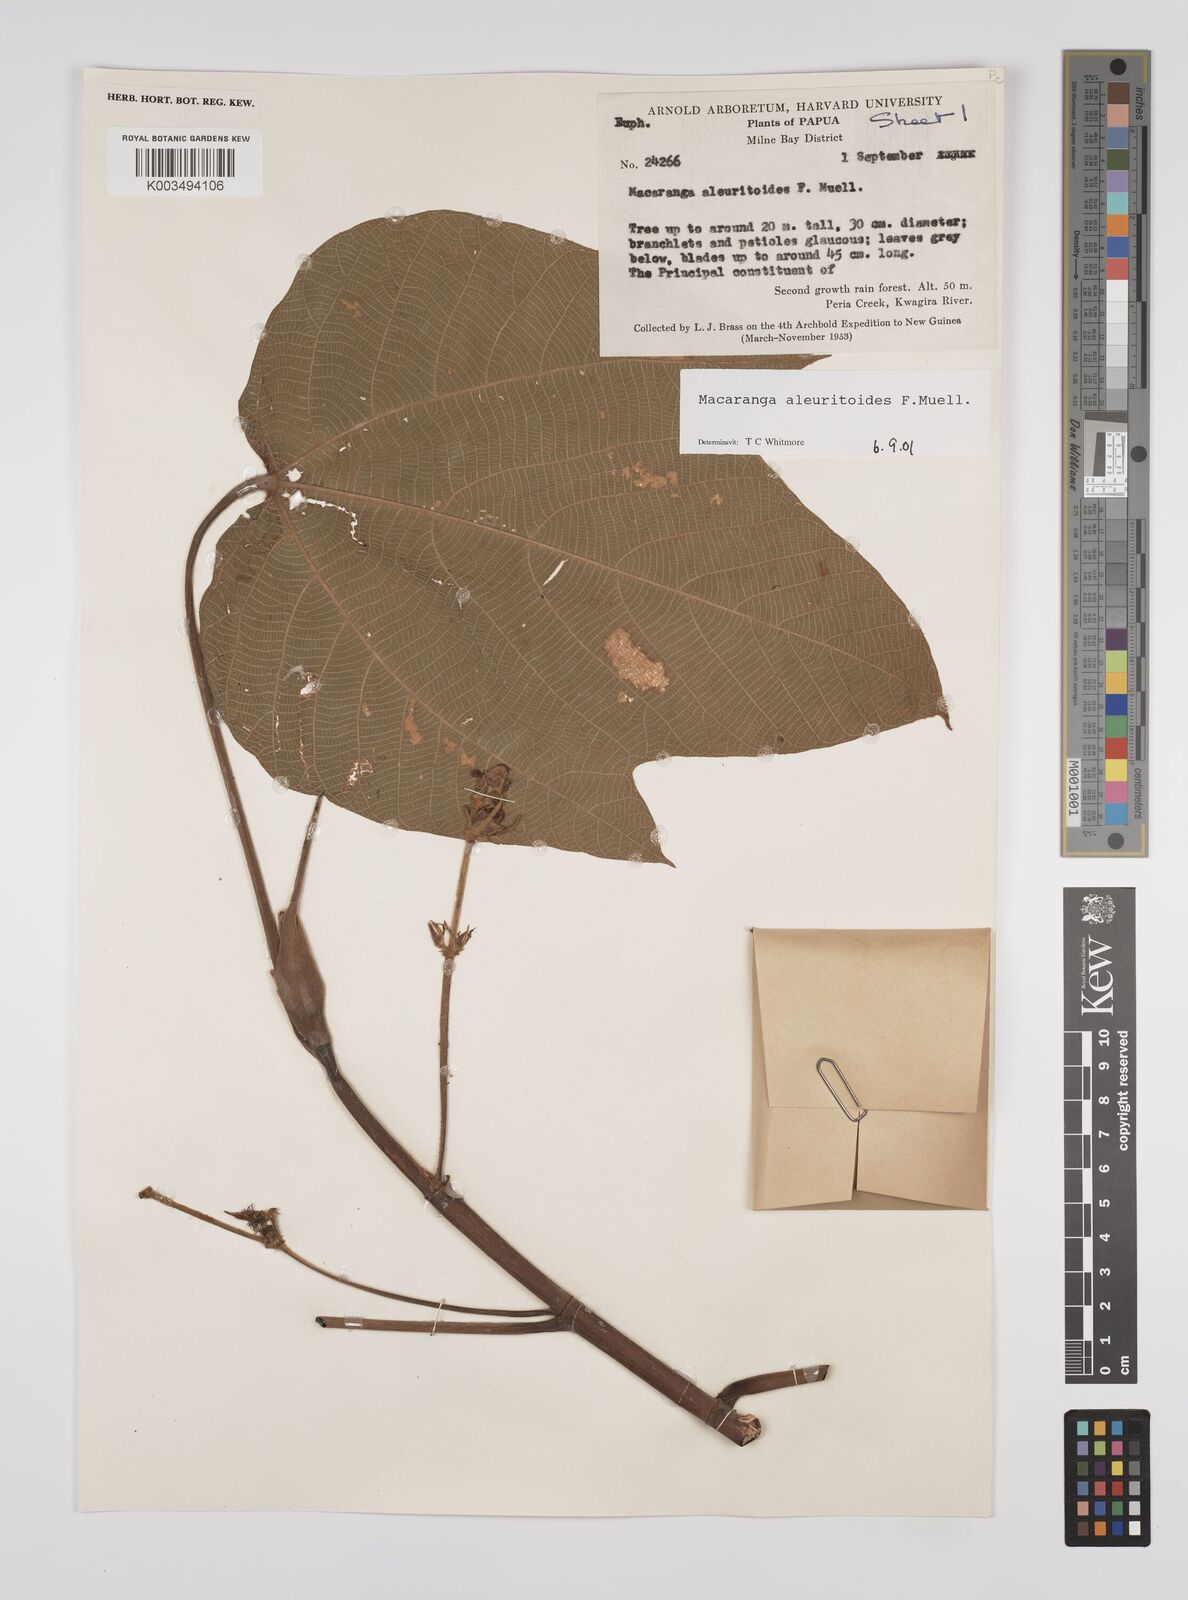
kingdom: Plantae
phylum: Tracheophyta
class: Magnoliopsida
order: Malpighiales
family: Euphorbiaceae
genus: Macaranga
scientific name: Macaranga aleuritoides
